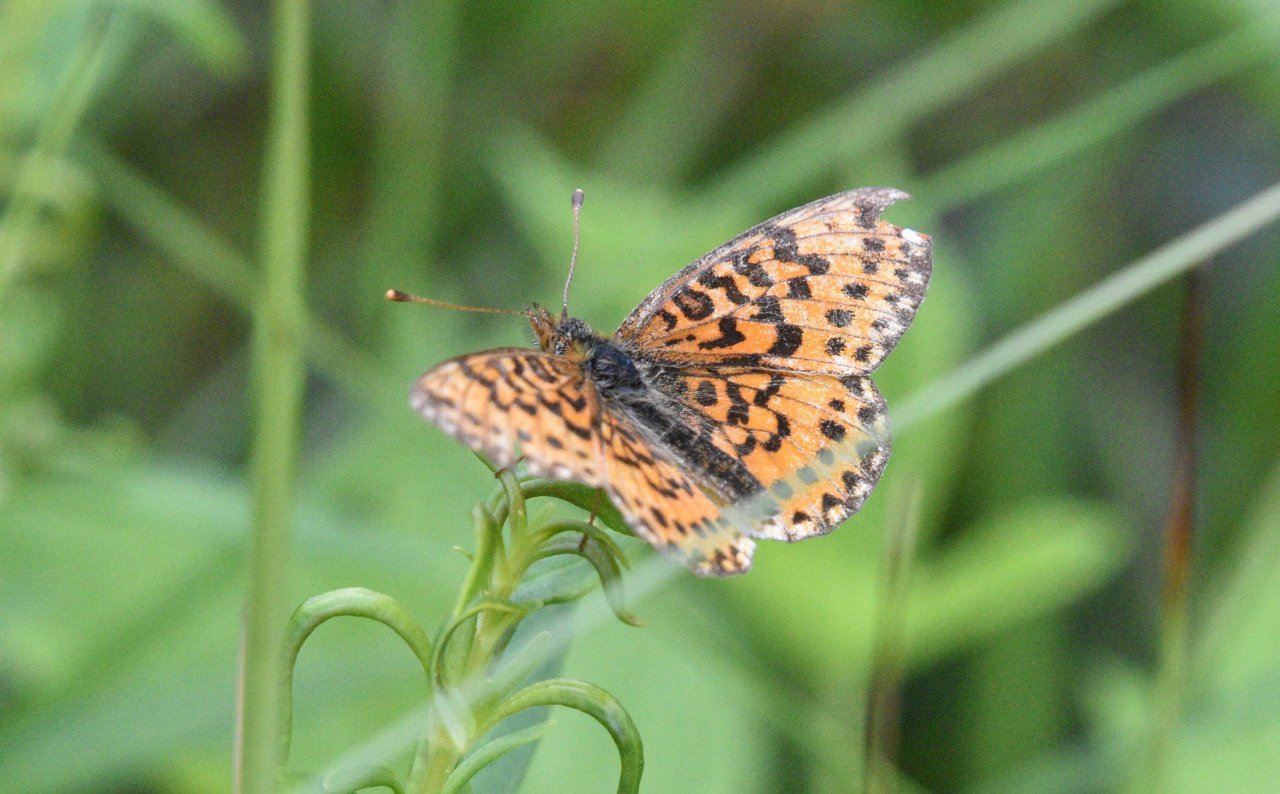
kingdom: Animalia
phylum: Arthropoda
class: Insecta
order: Lepidoptera
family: Nymphalidae
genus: Boloria
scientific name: Boloria selene
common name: Silver-bordered Fritillary
